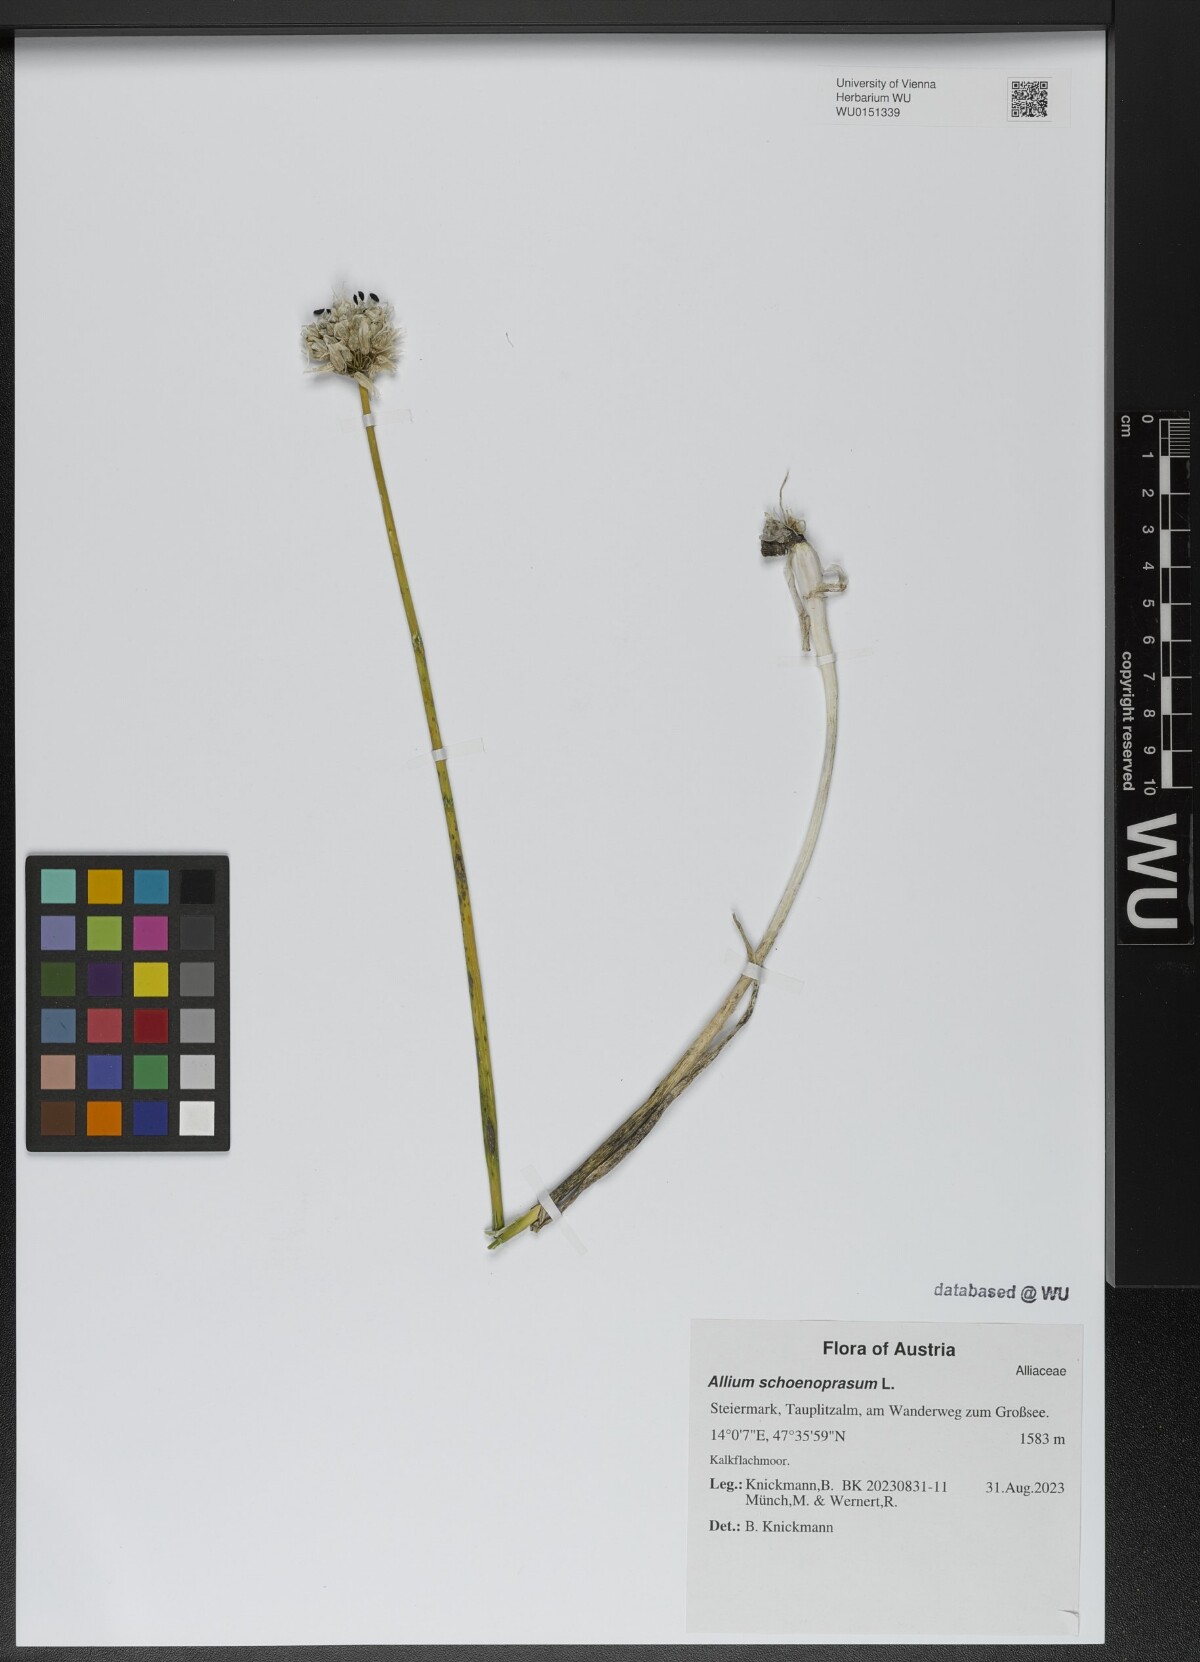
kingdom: Plantae
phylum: Tracheophyta
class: Liliopsida
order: Asparagales
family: Amaryllidaceae
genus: Allium
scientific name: Allium schoenoprasum
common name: Chives
